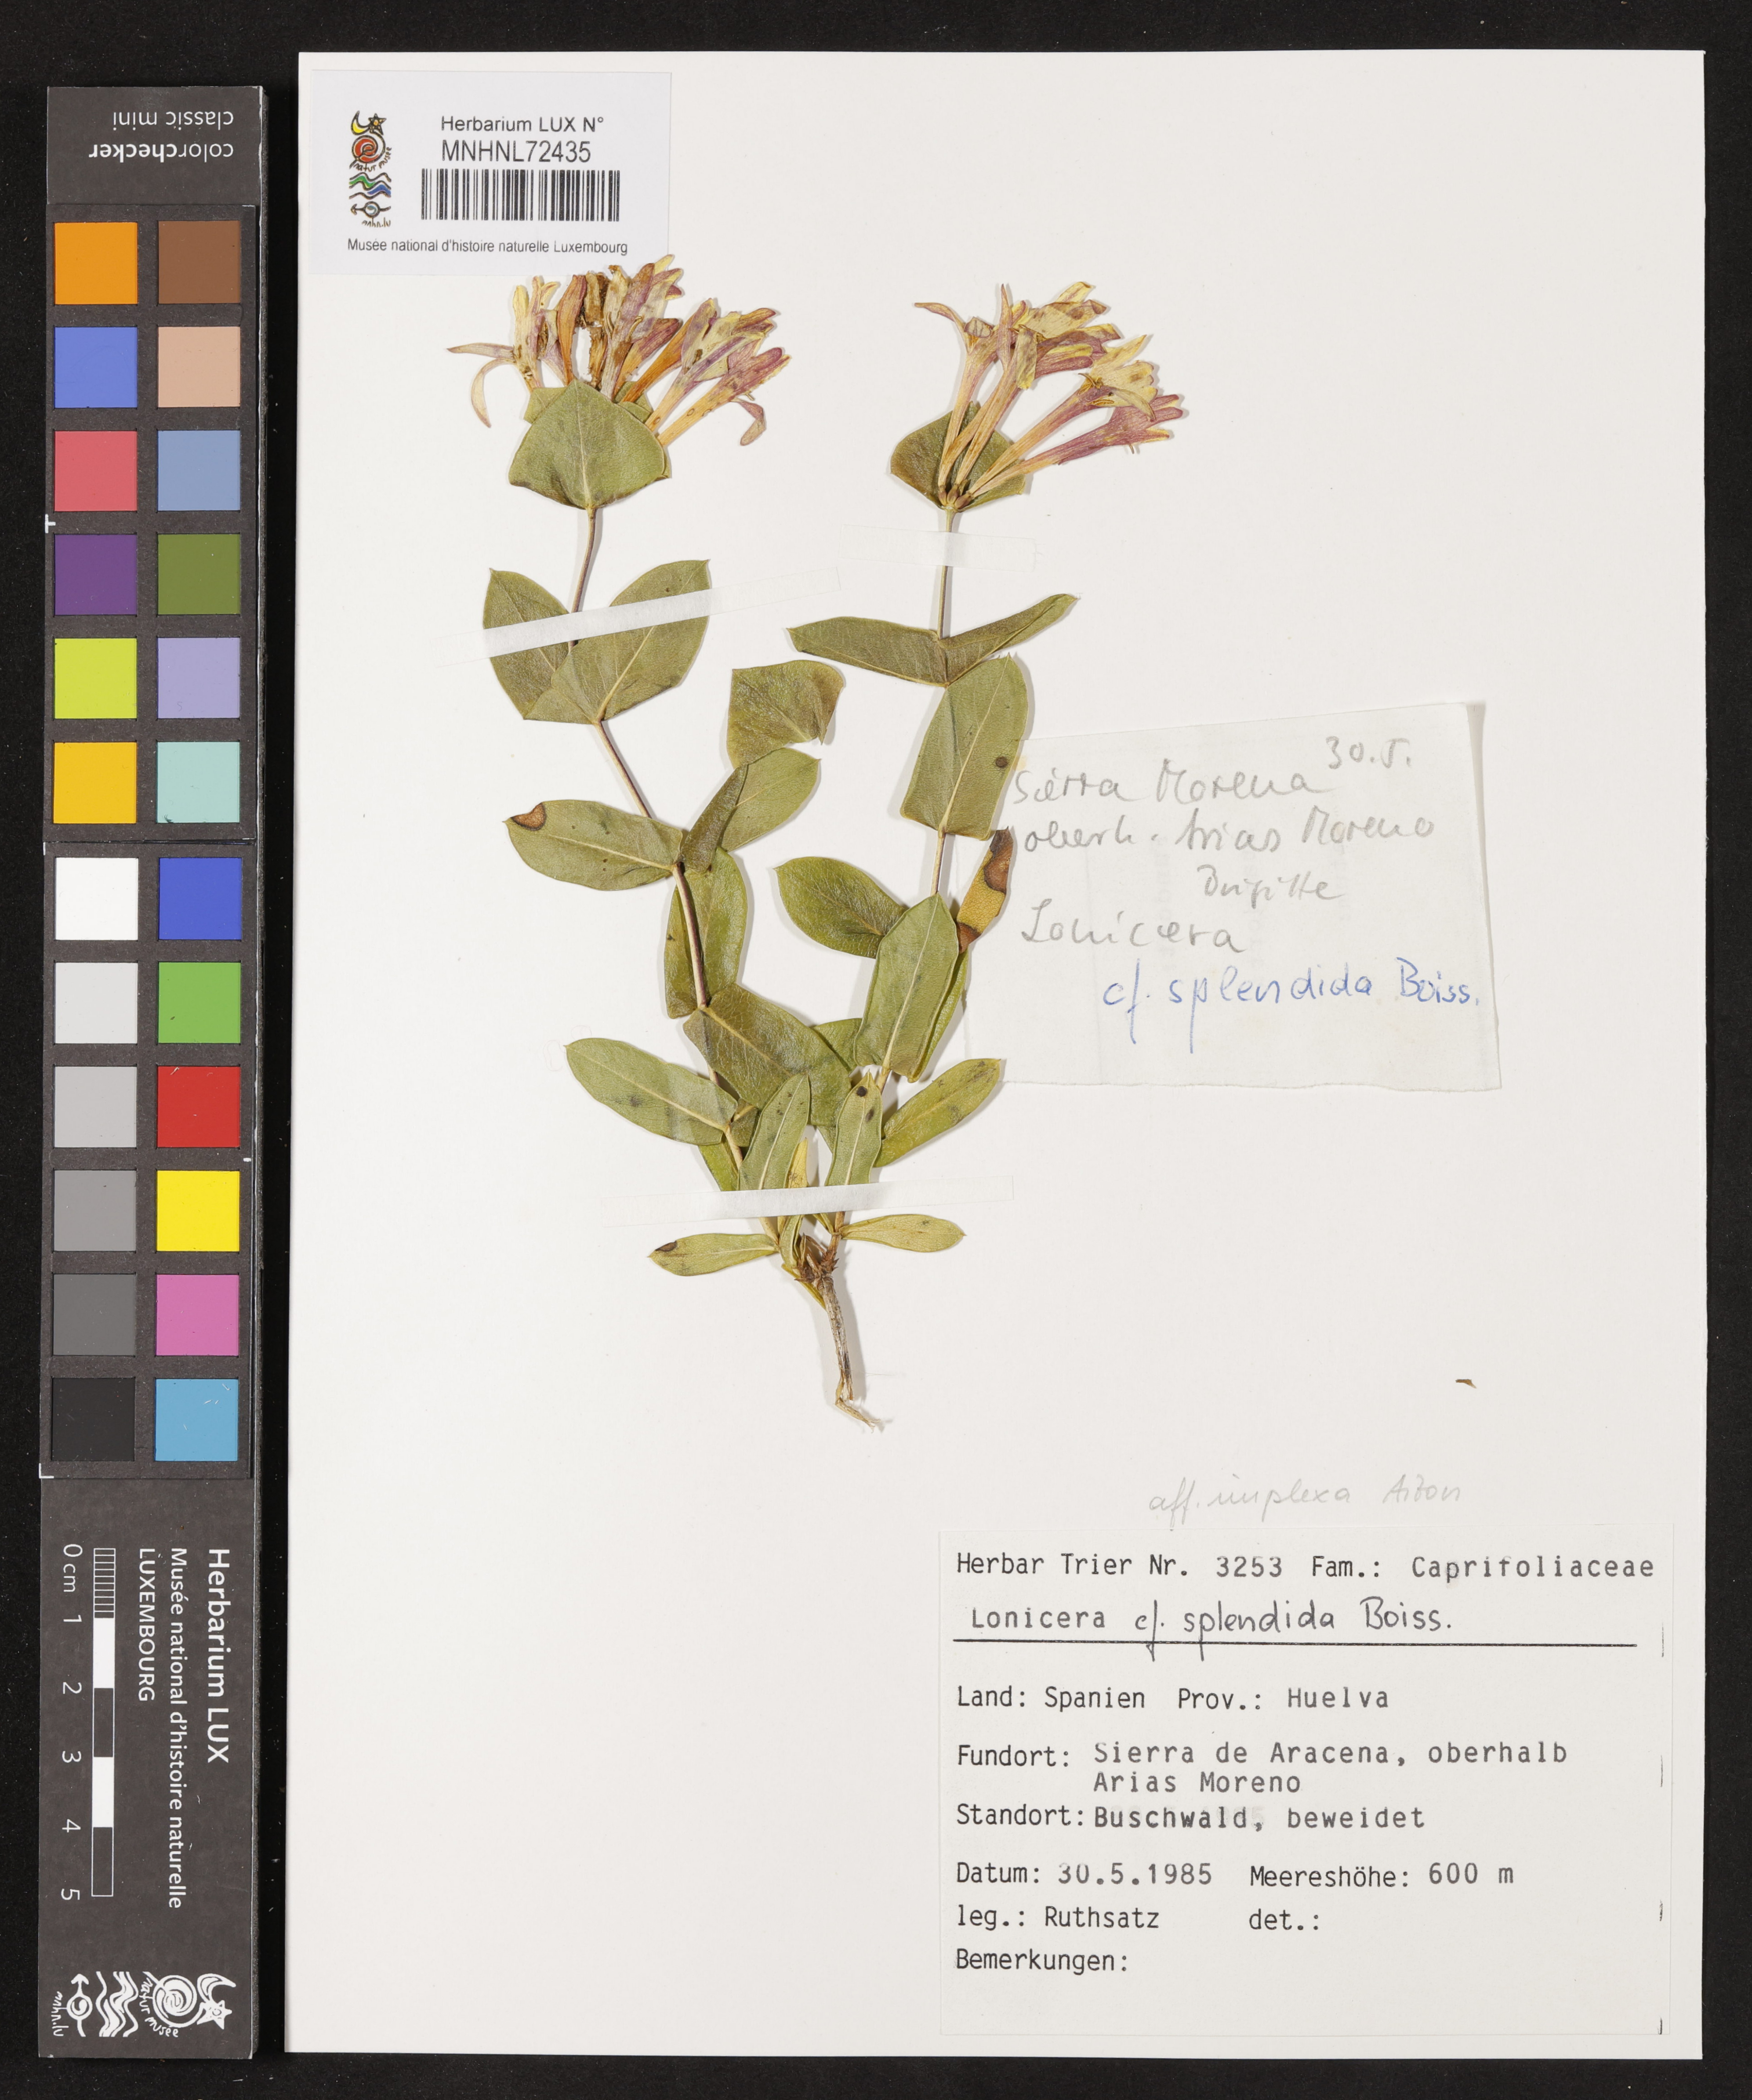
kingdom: Plantae
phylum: Tracheophyta
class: Magnoliopsida
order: Dipsacales
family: Caprifoliaceae
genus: Lonicera
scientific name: Lonicera splendida
